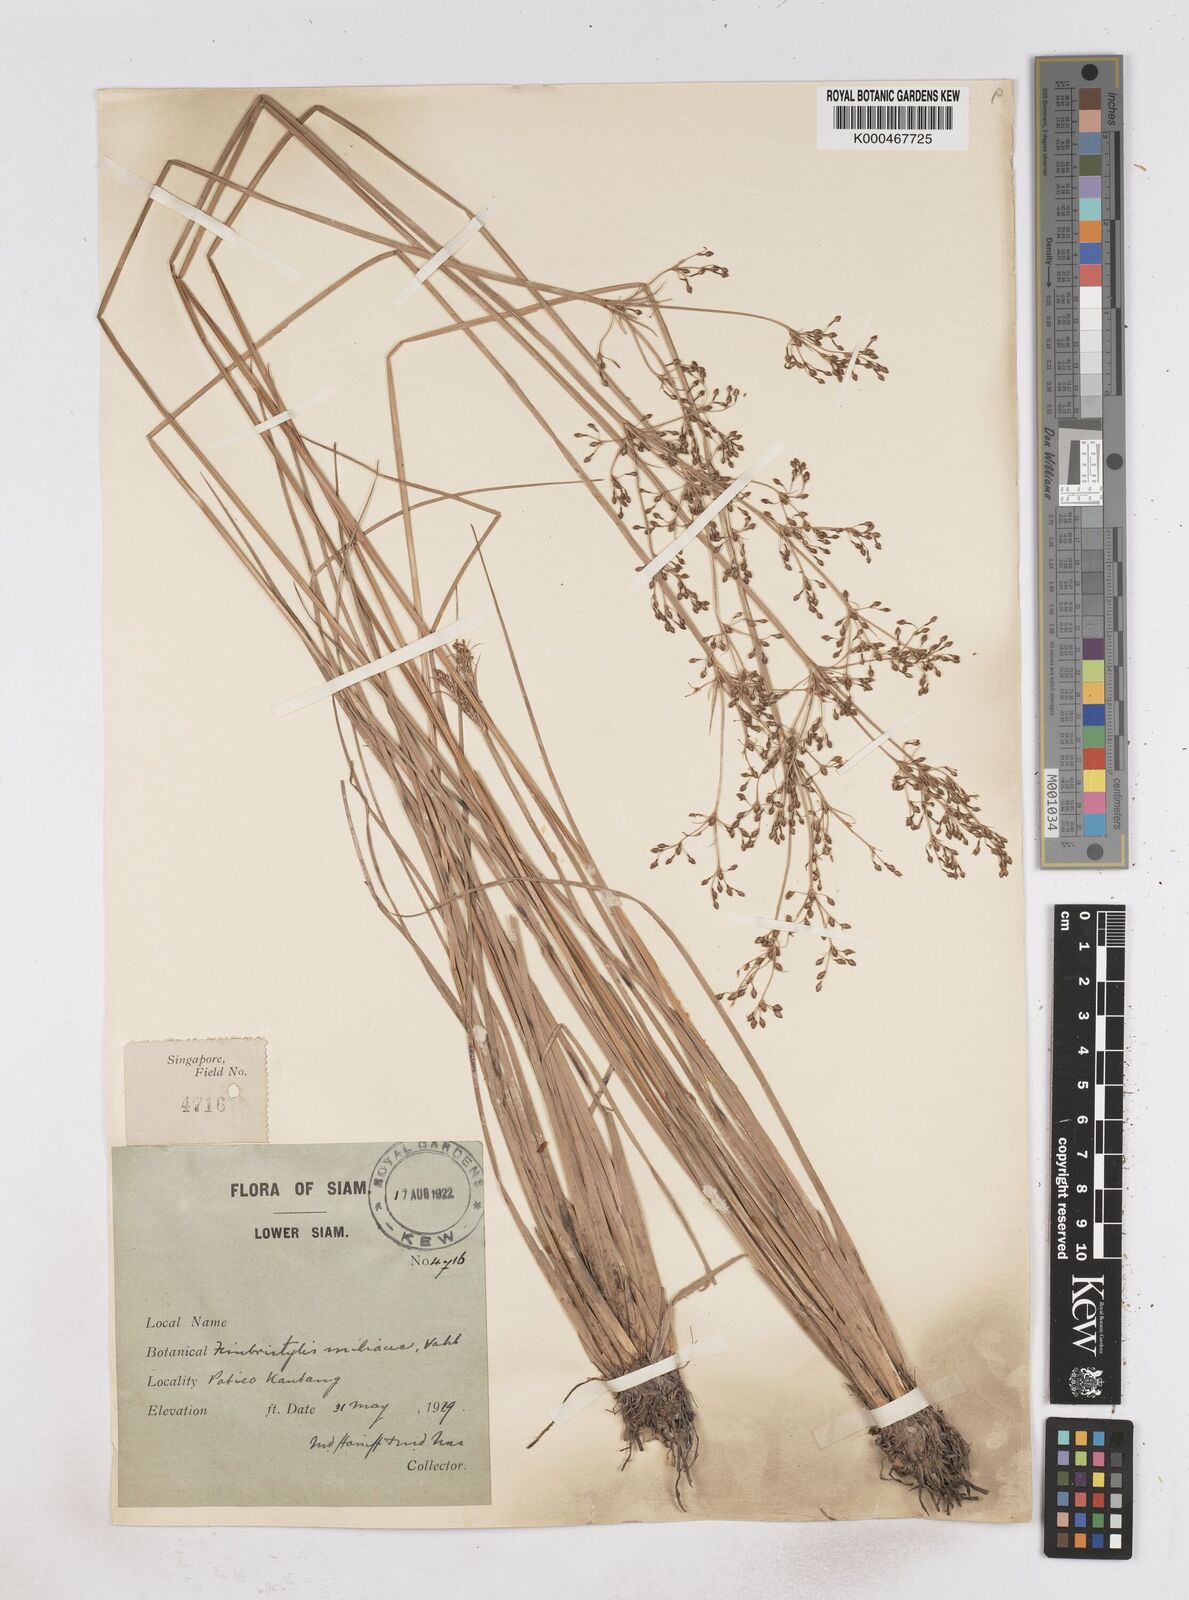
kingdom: Plantae
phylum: Tracheophyta
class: Liliopsida
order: Poales
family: Cyperaceae
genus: Fimbristylis
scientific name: Fimbristylis quinquangularis
